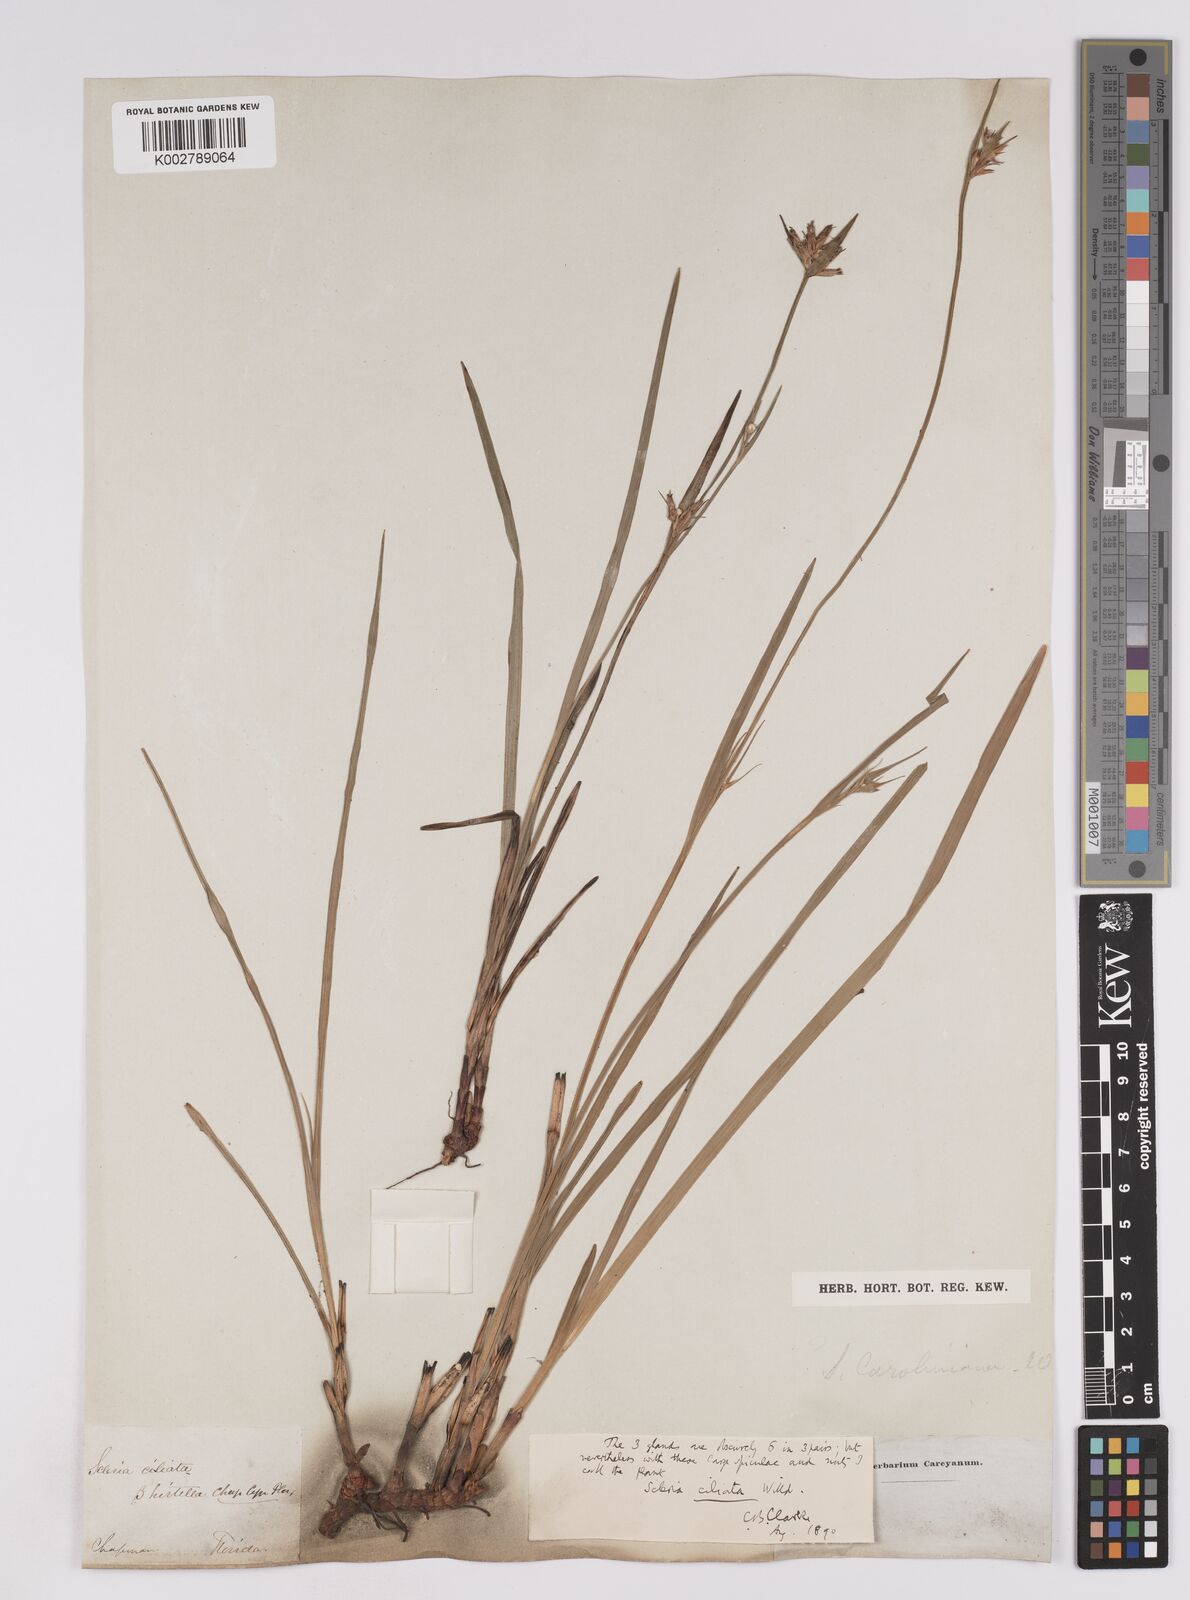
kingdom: Plantae
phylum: Tracheophyta
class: Liliopsida
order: Poales
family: Cyperaceae
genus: Scleria
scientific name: Scleria ciliata
